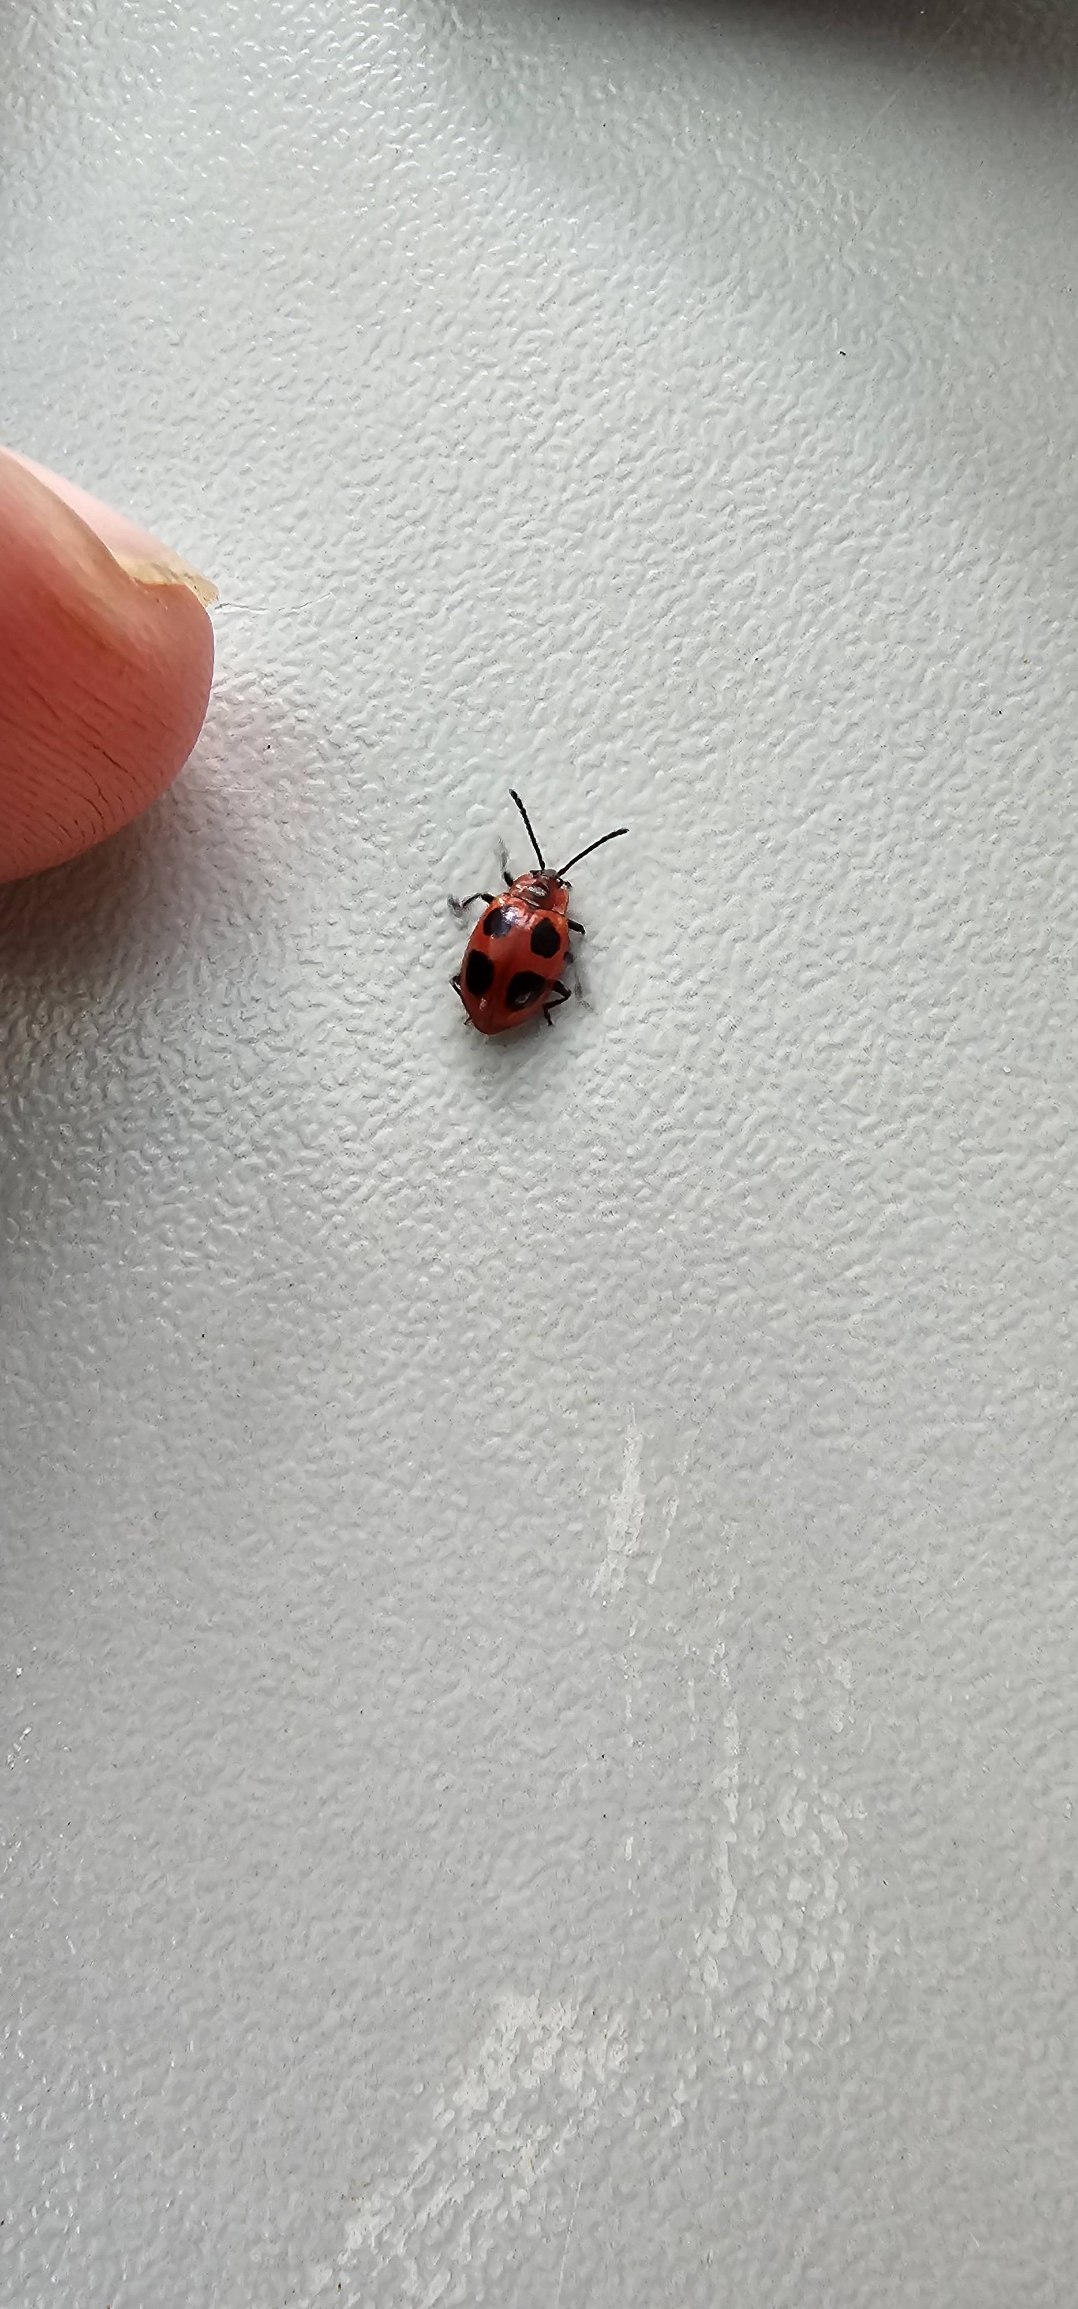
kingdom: Animalia
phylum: Arthropoda
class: Insecta
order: Coleoptera
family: Endomychidae
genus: Endomychus
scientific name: Endomychus coccineus
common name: Skarlagensvampehøne
